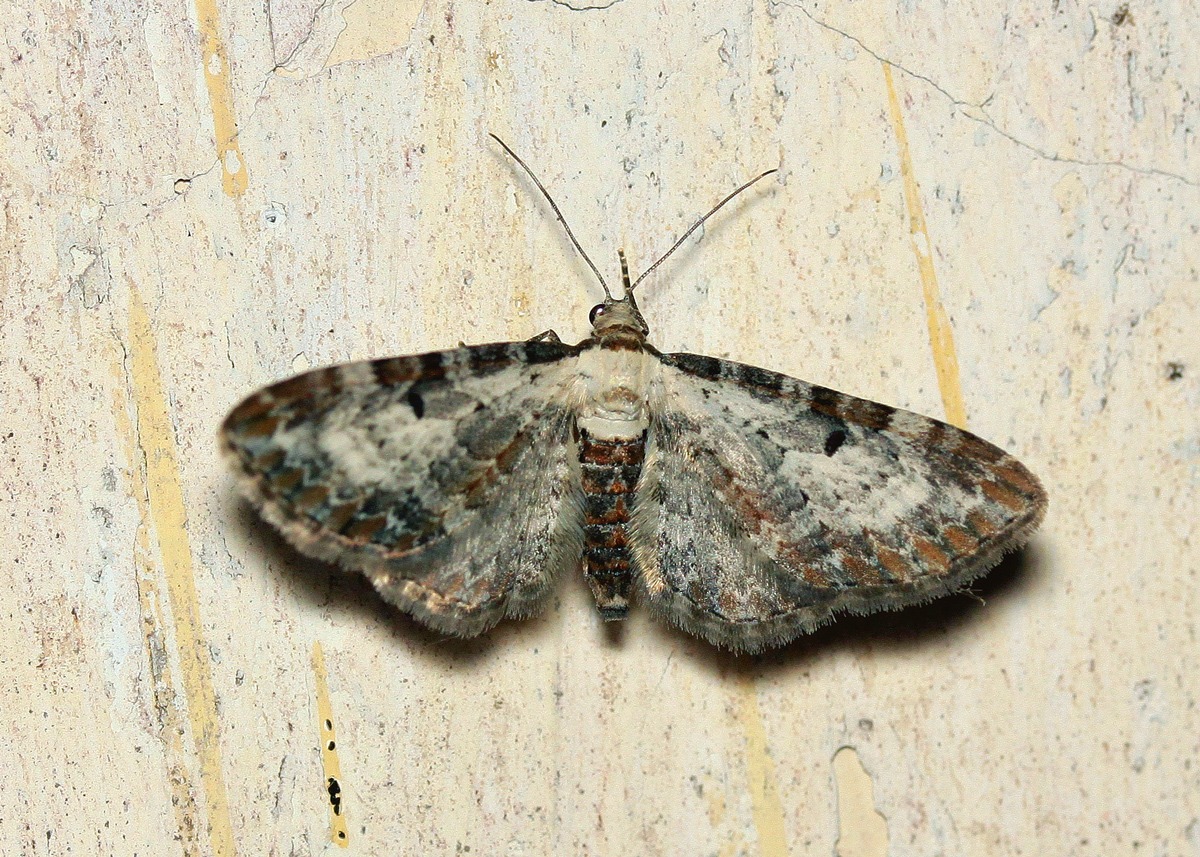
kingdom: Animalia
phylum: Arthropoda
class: Insecta
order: Lepidoptera
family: Geometridae
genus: Eupithecia
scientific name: Eupithecia succenturiata
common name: Bynke-dværgmåler
